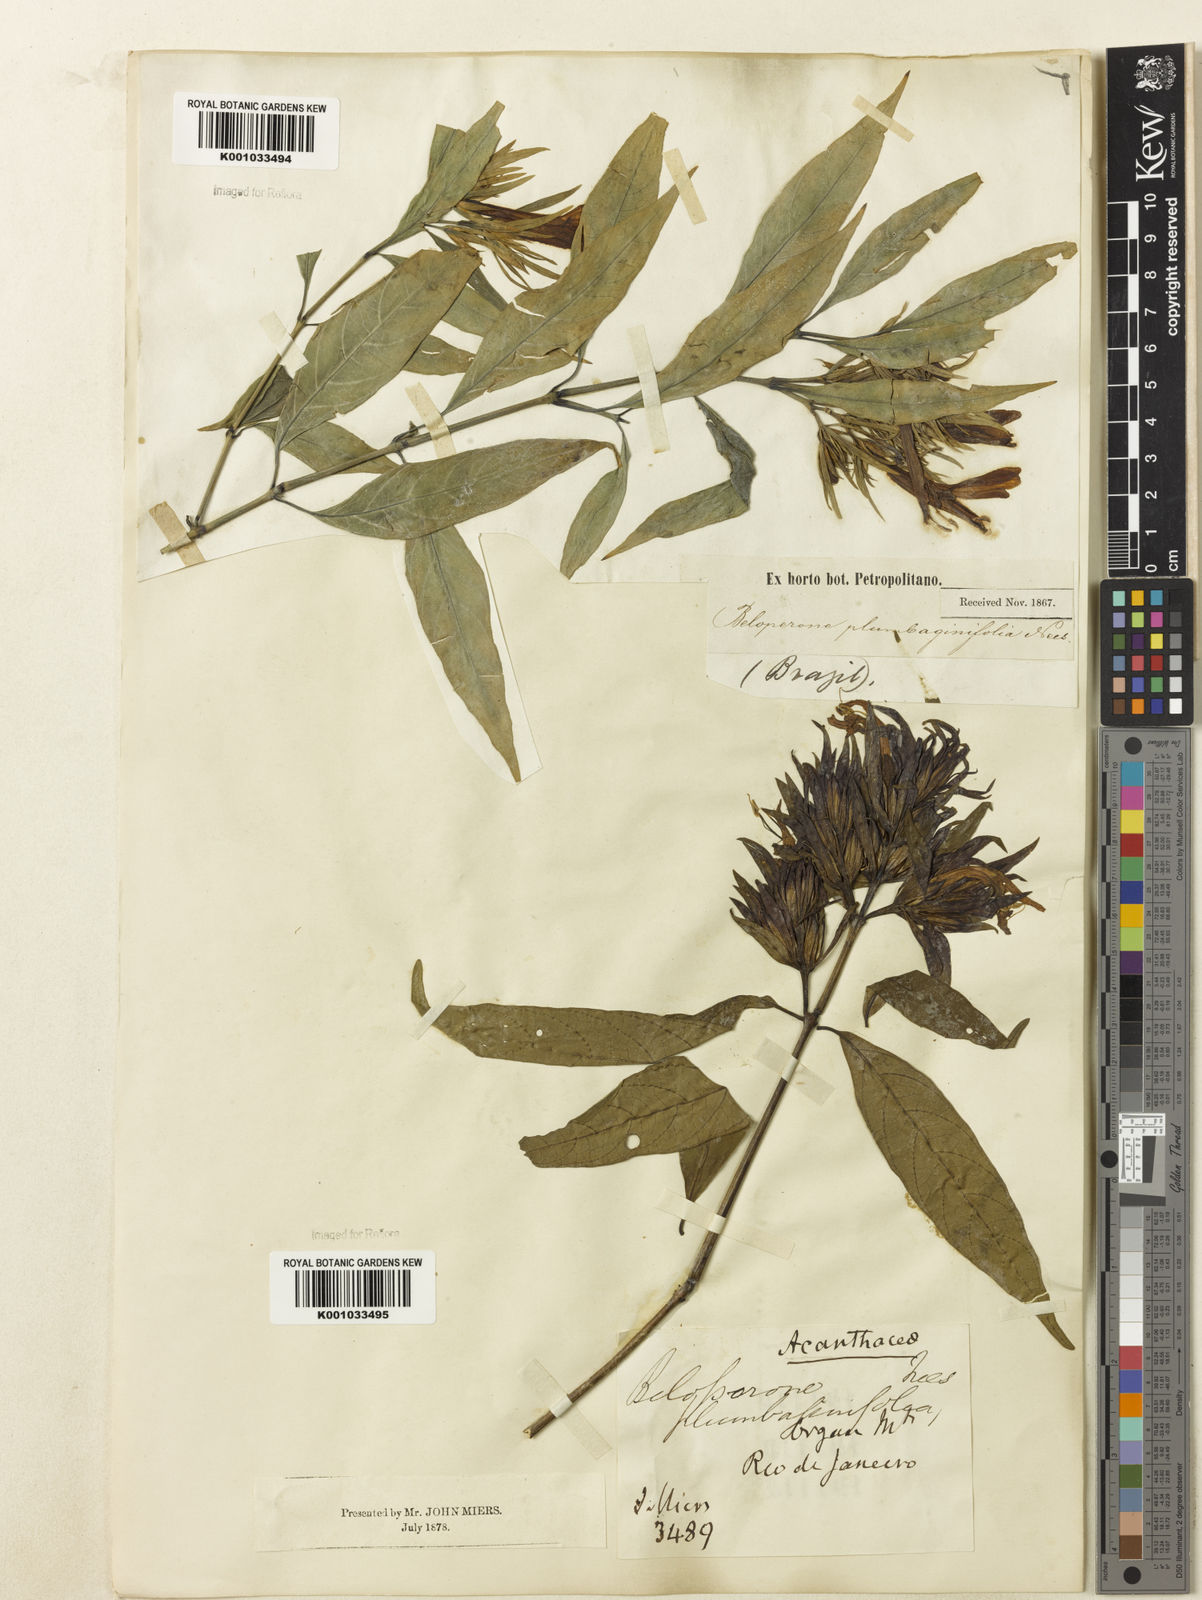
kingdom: Plantae
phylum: Tracheophyta
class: Magnoliopsida
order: Lamiales
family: Acanthaceae
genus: Justicia
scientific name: Justicia plumbaginifolia
